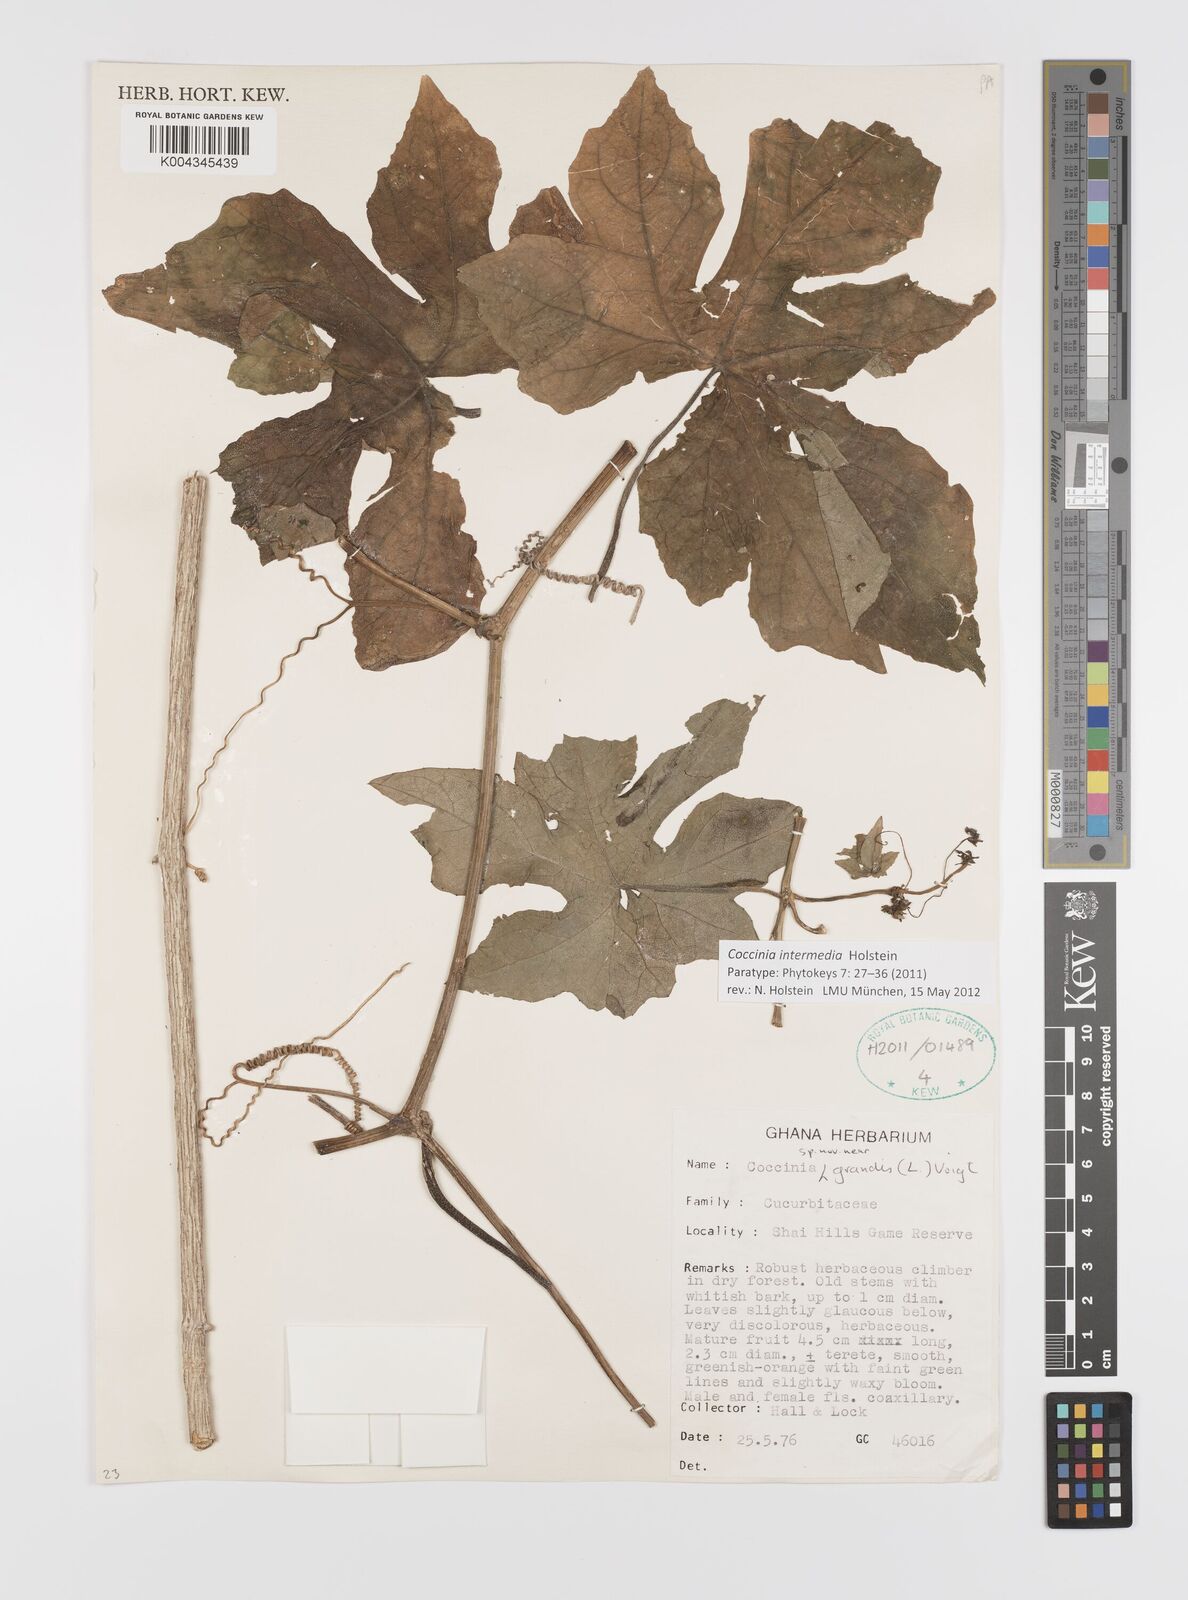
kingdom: Plantae
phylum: Tracheophyta
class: Magnoliopsida
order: Cucurbitales
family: Cucurbitaceae
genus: Coccinia
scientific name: Coccinia intermedia
